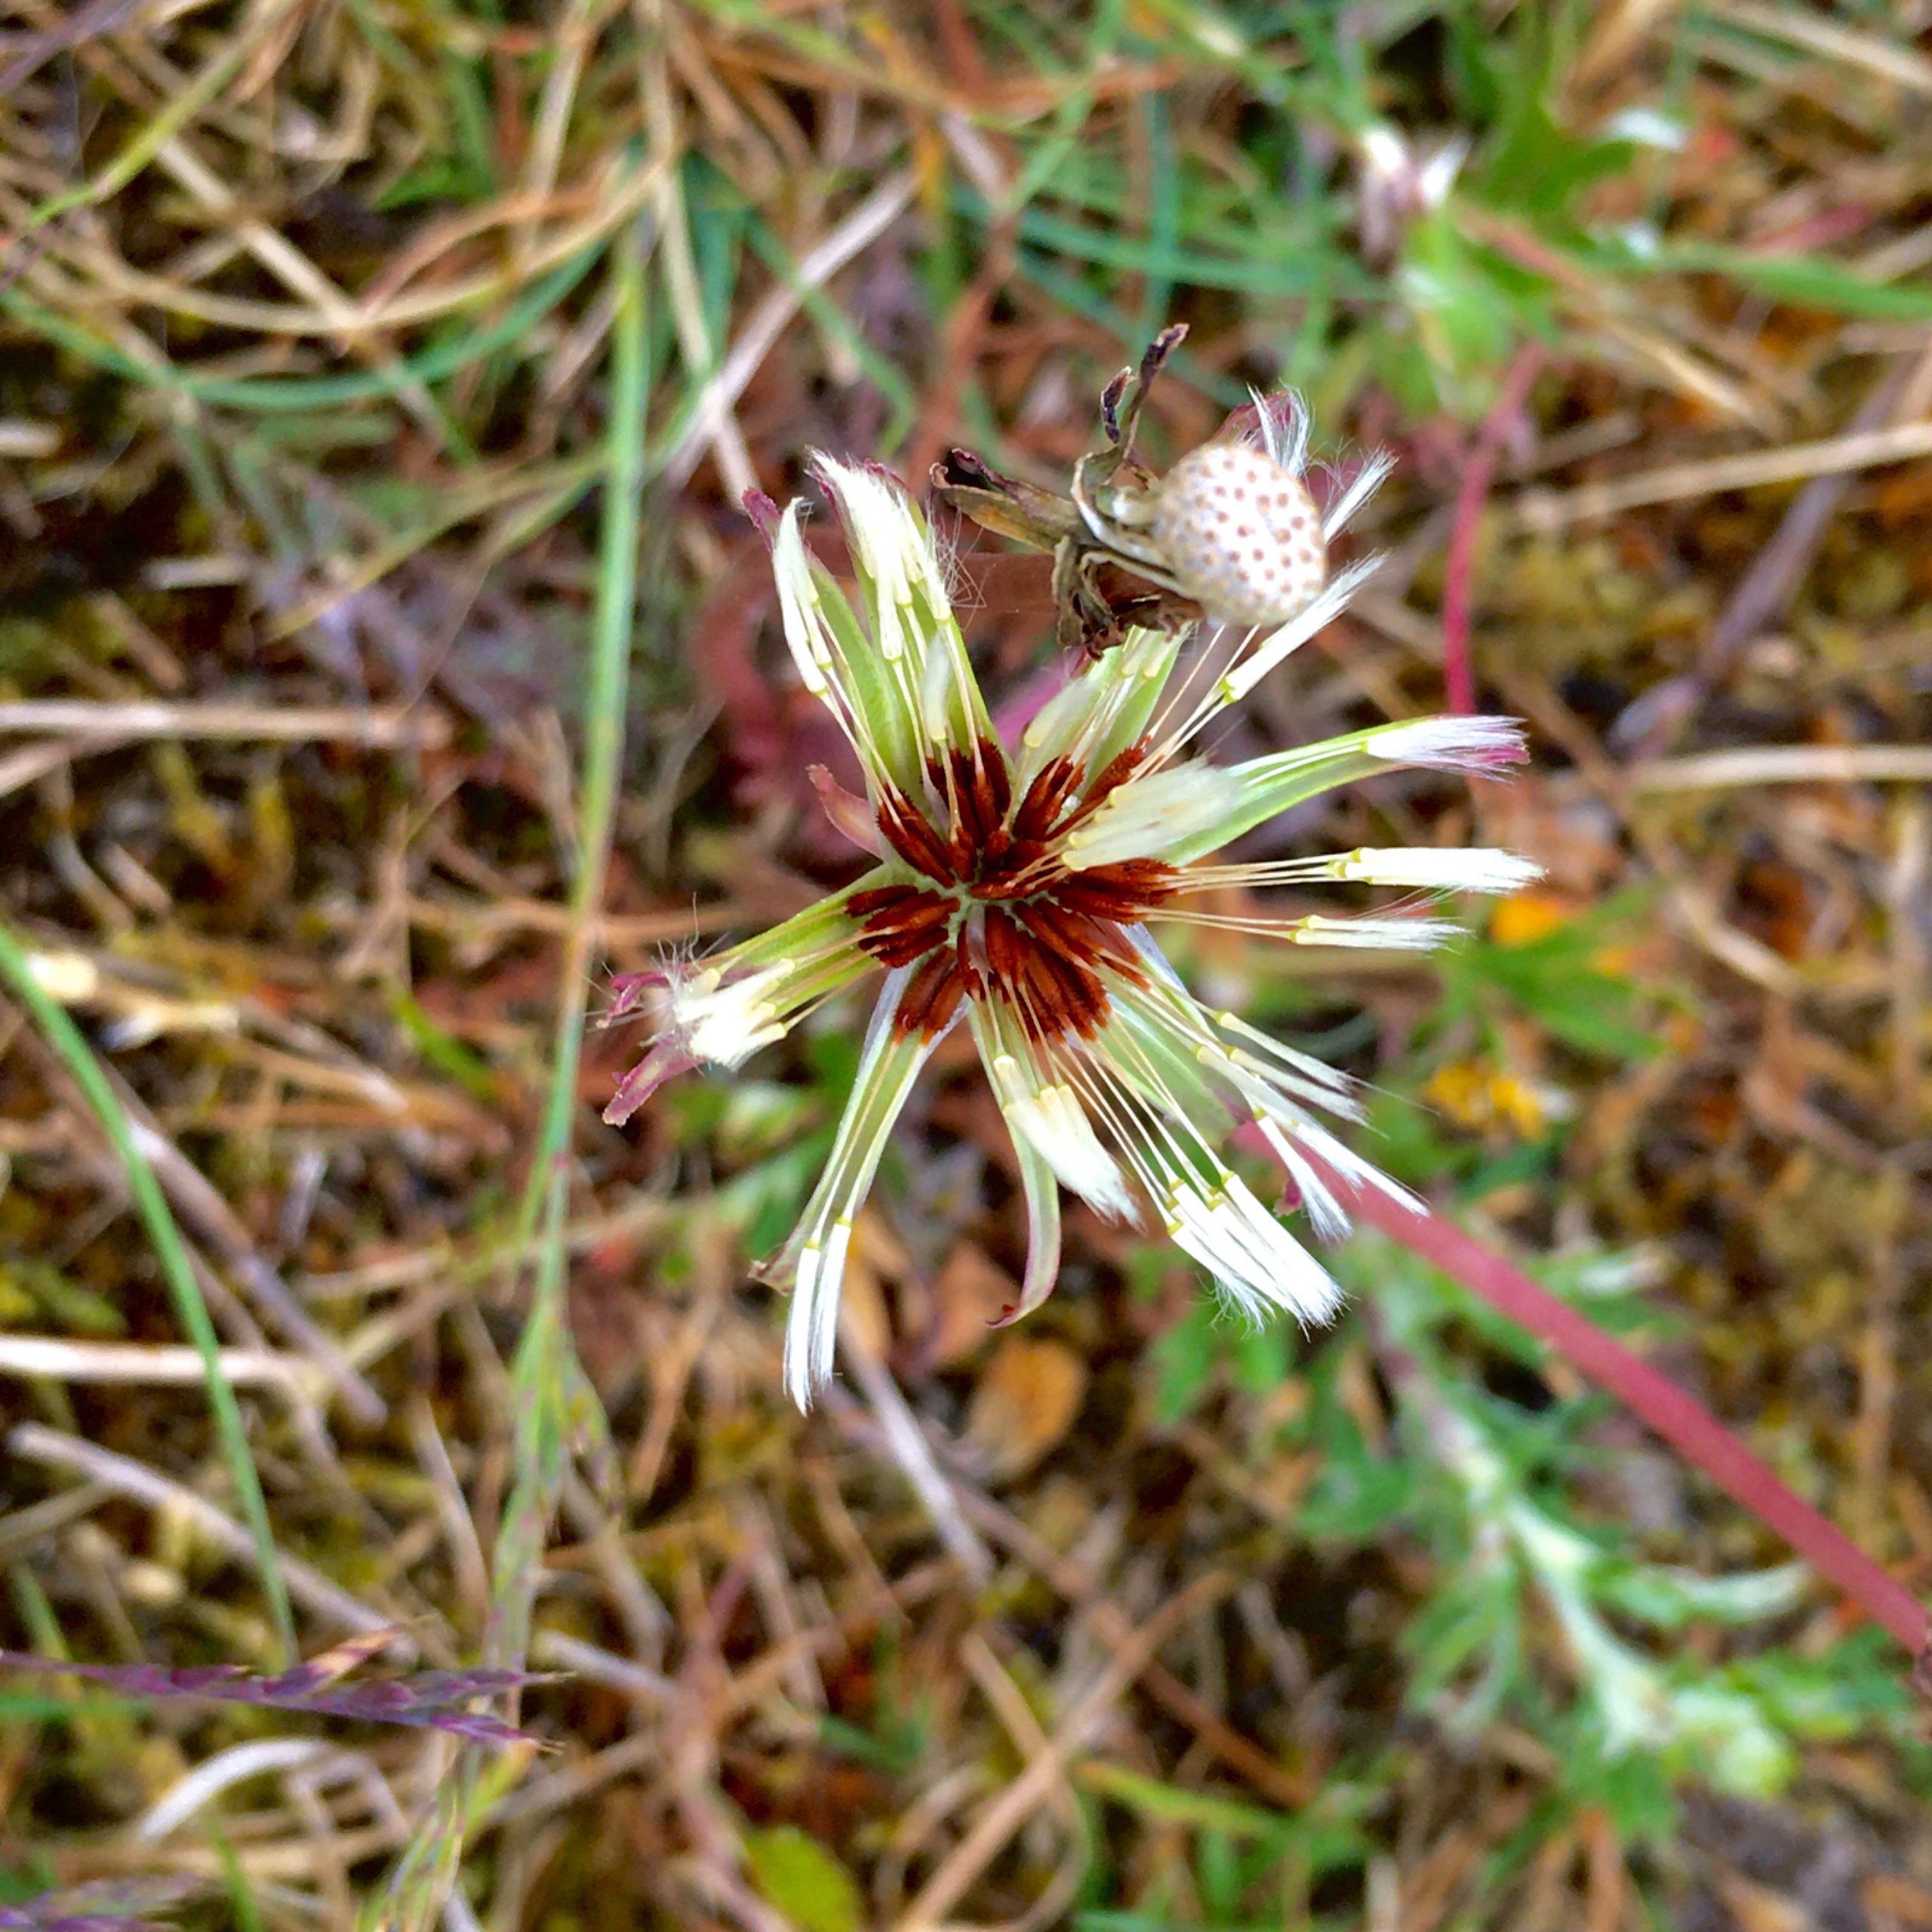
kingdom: Plantae
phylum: Tracheophyta
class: Magnoliopsida
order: Asterales
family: Asteraceae
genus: Taraxacum
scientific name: Taraxacum erythrosperma
